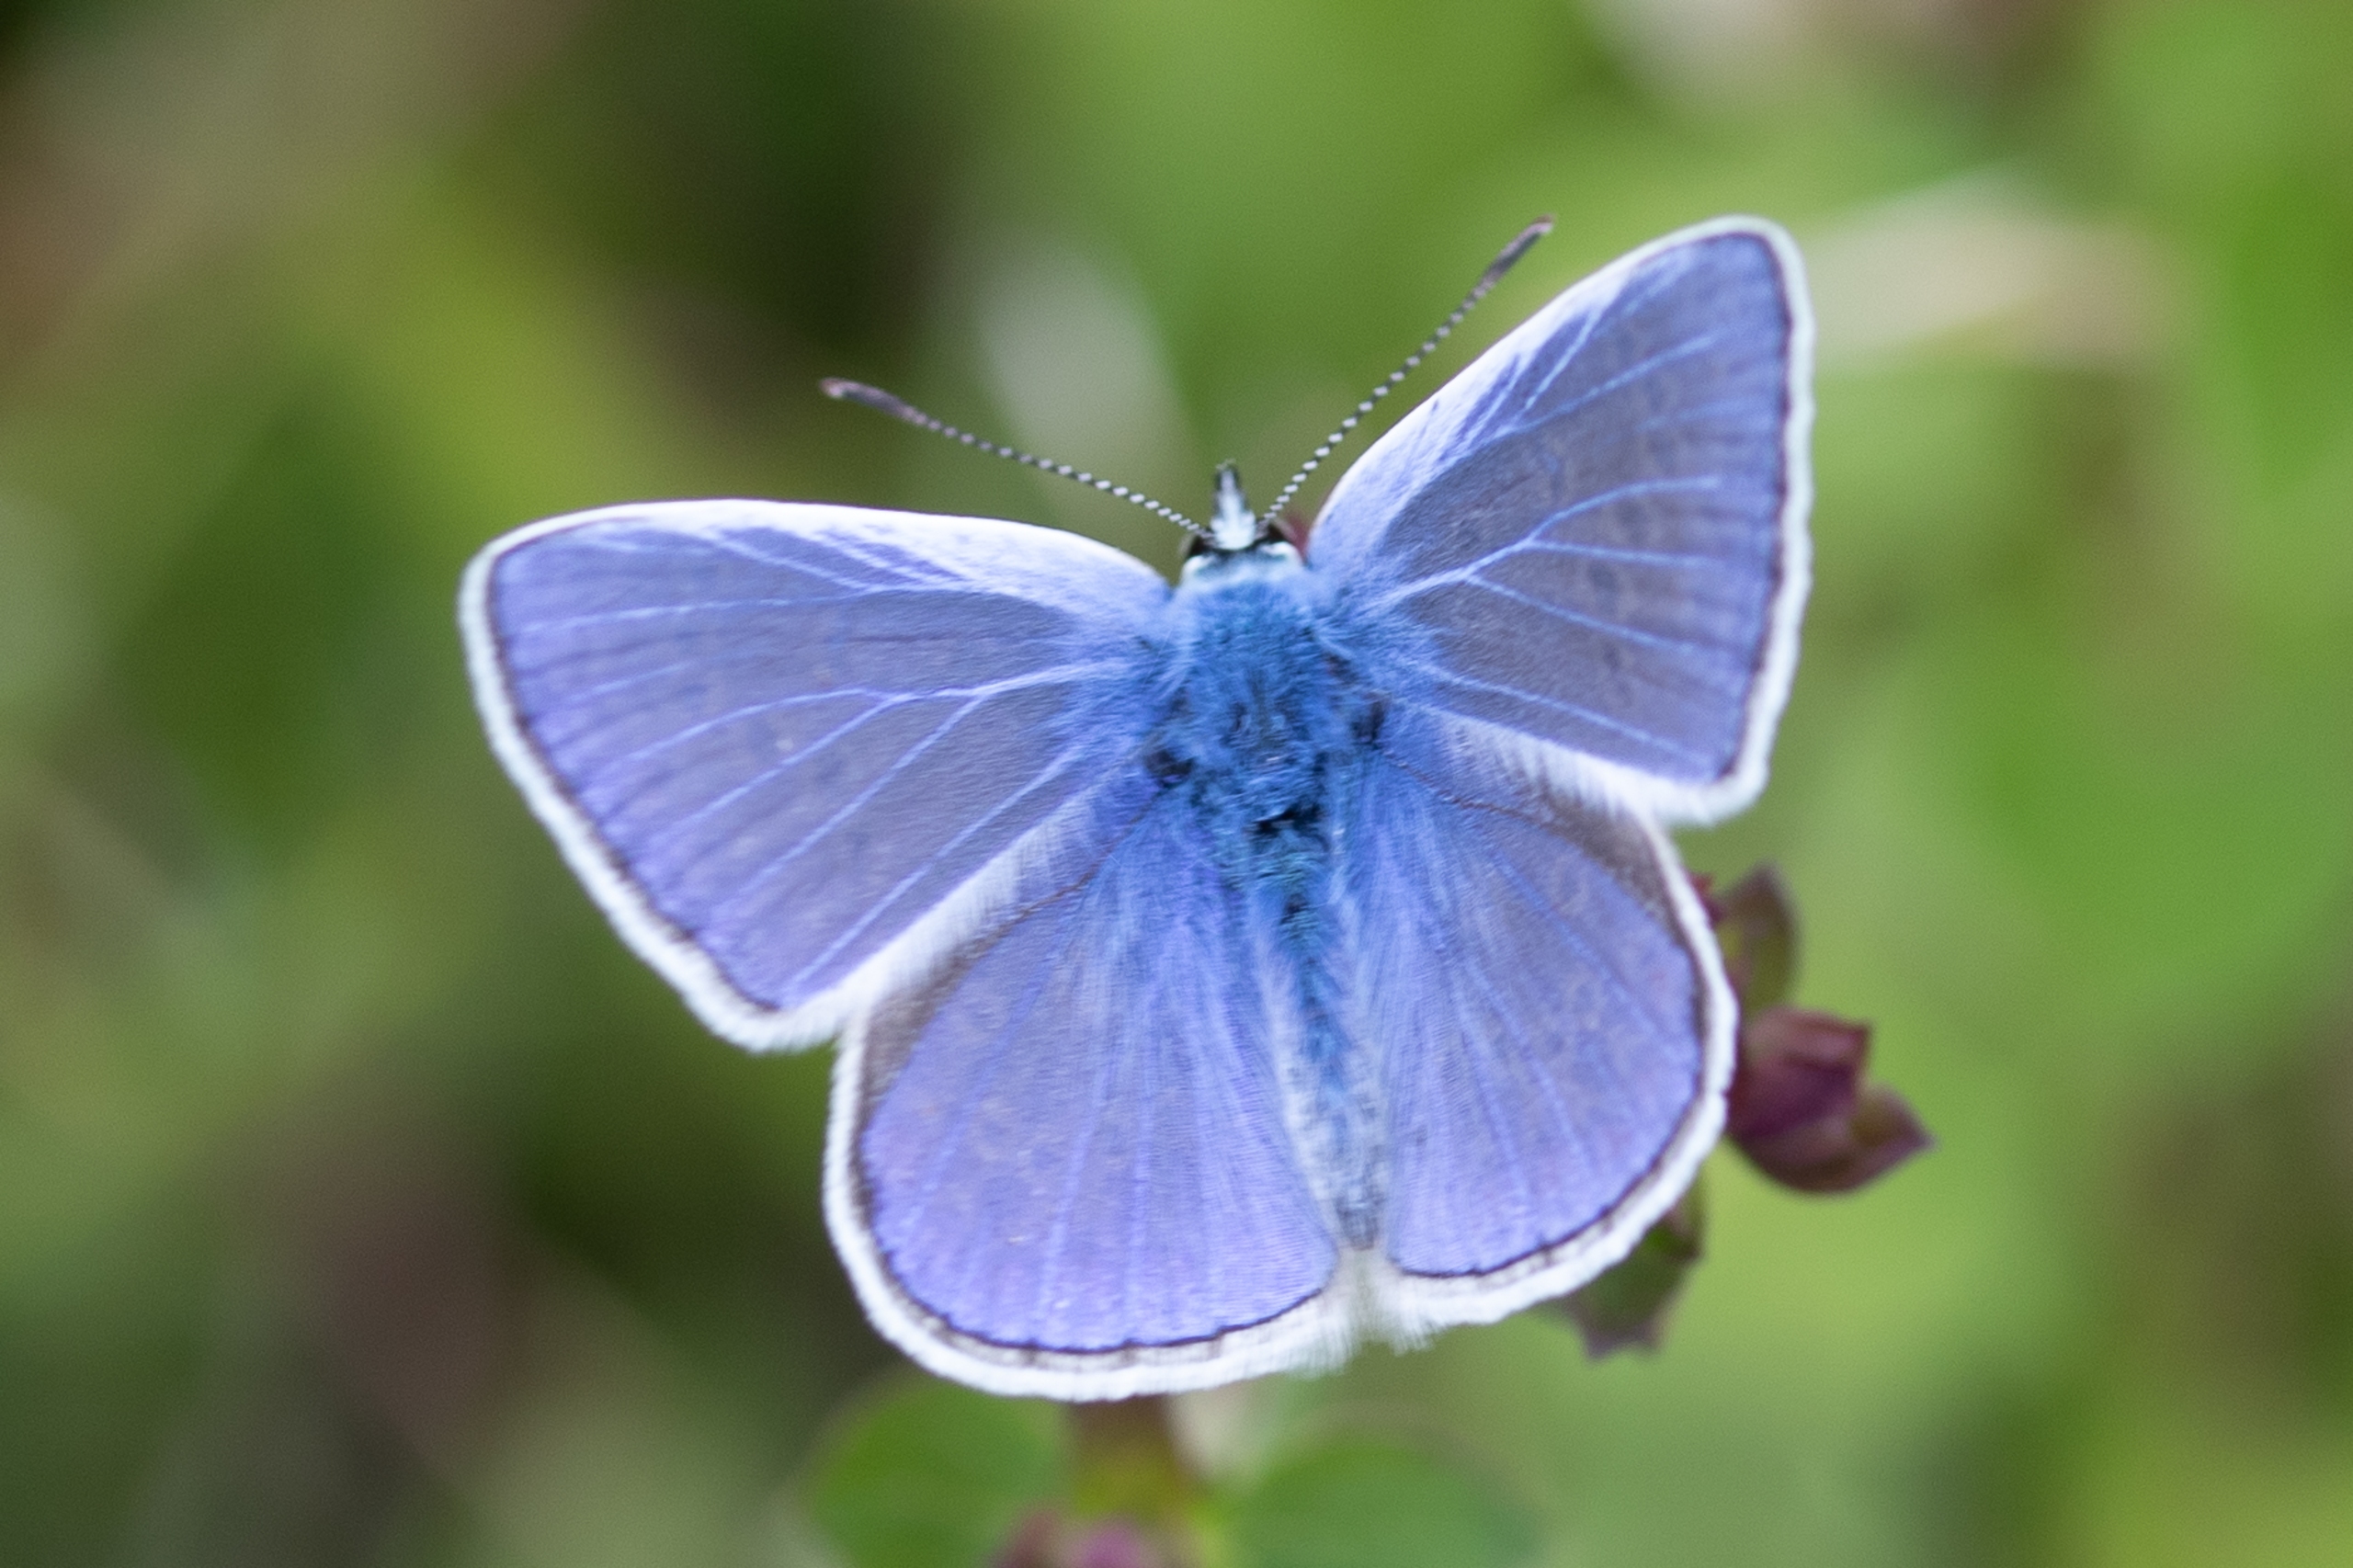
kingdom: Animalia
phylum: Arthropoda
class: Insecta
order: Lepidoptera
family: Lycaenidae
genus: Polyommatus
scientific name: Polyommatus icarus
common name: Almindelig blåfugl
